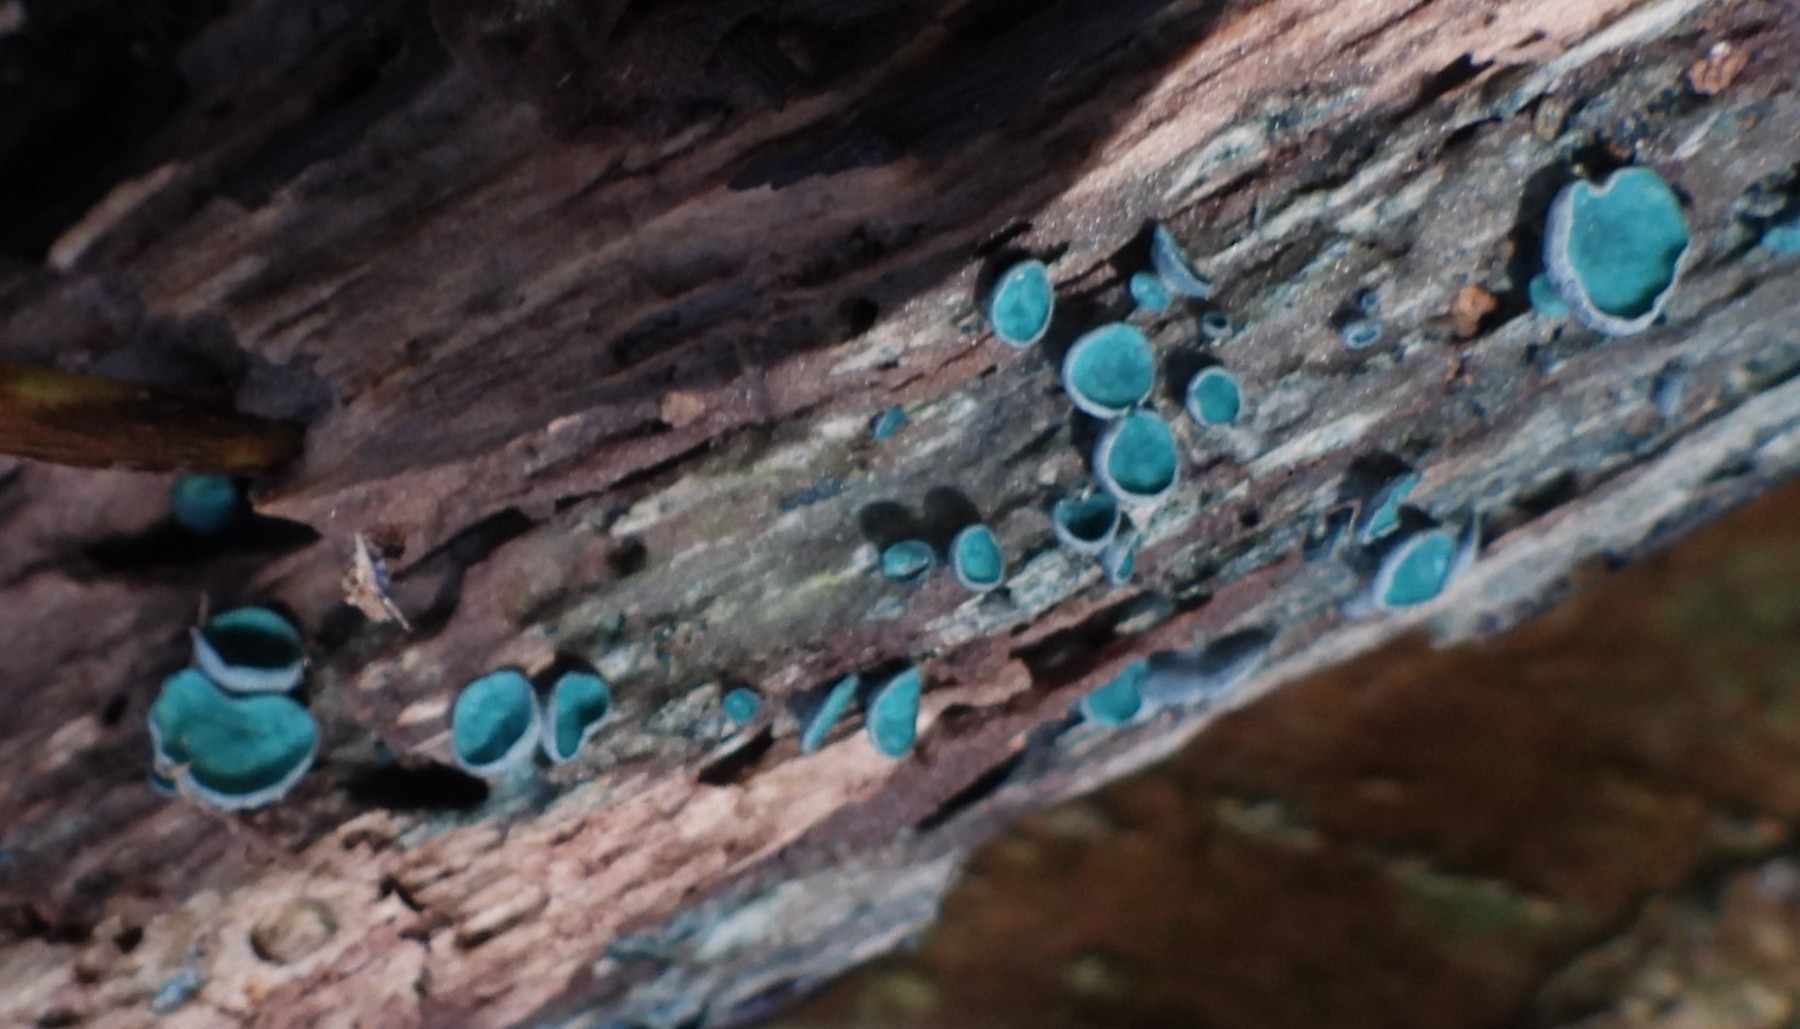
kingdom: Fungi
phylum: Ascomycota
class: Leotiomycetes
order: Helotiales
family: Chlorociboriaceae
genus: Chlorociboria
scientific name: Chlorociboria aeruginascens
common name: almindelig grønskive
